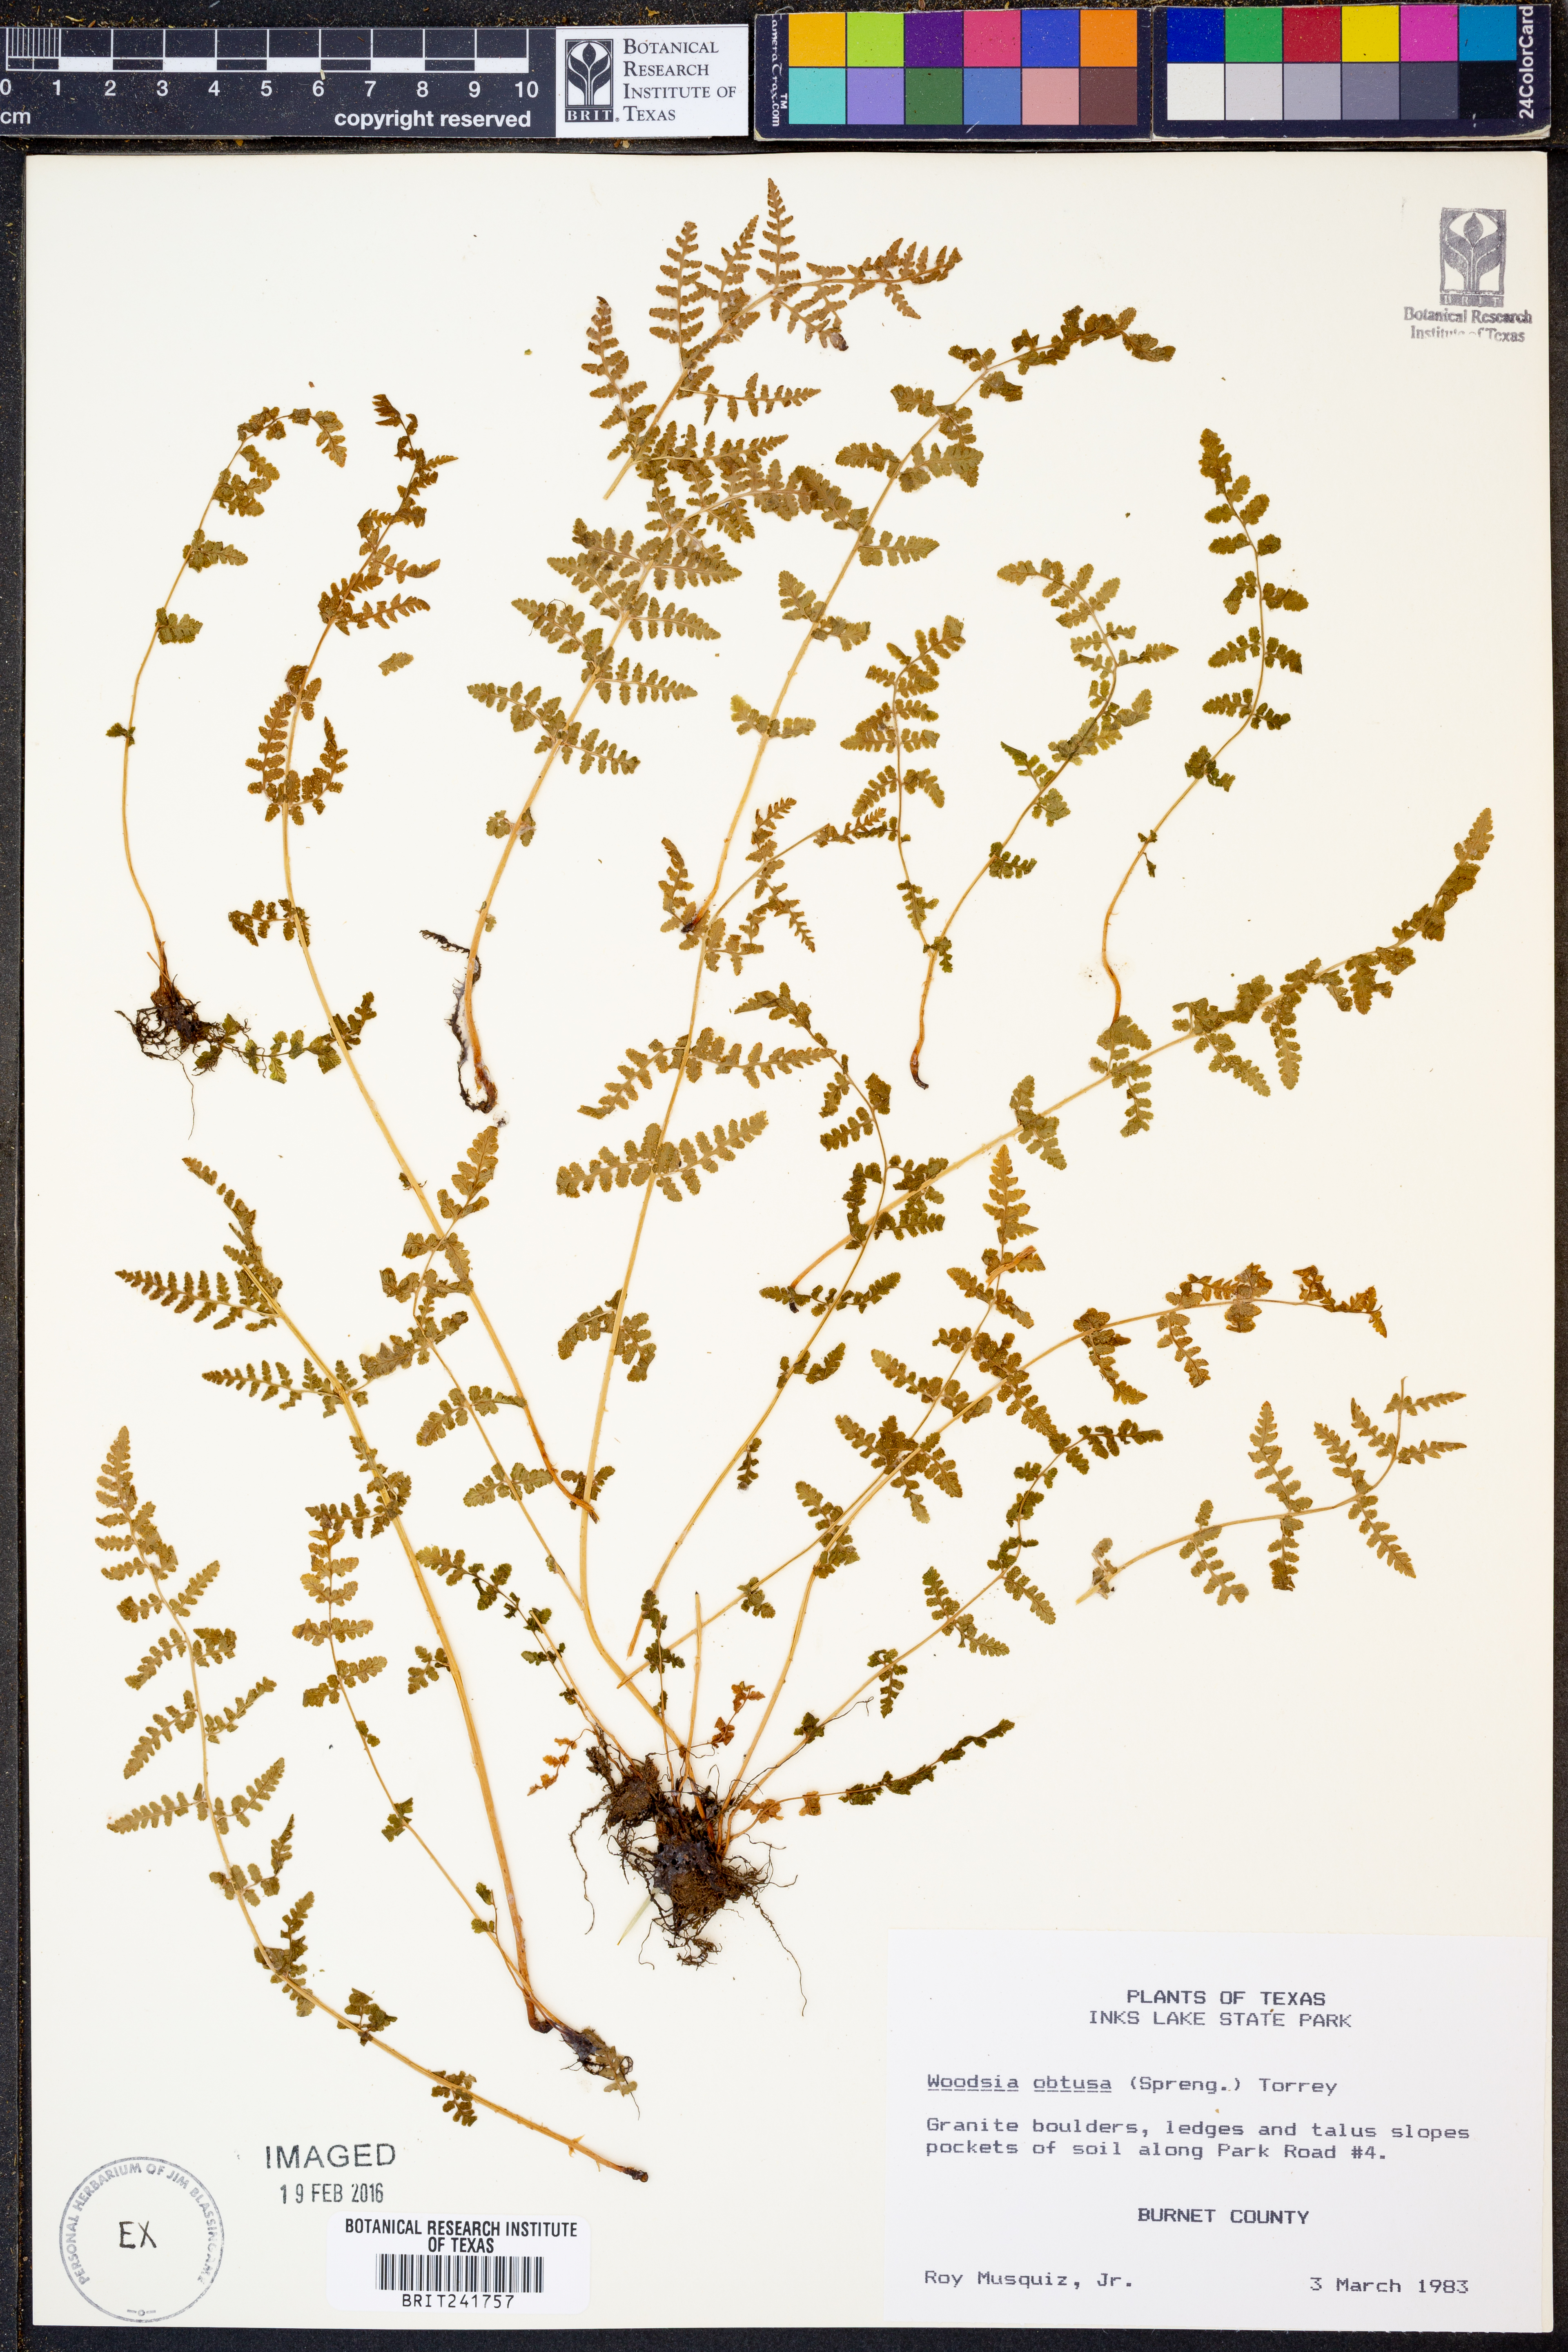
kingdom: Plantae
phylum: Tracheophyta
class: Polypodiopsida
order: Polypodiales
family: Woodsiaceae
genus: Physematium
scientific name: Physematium obtusum
